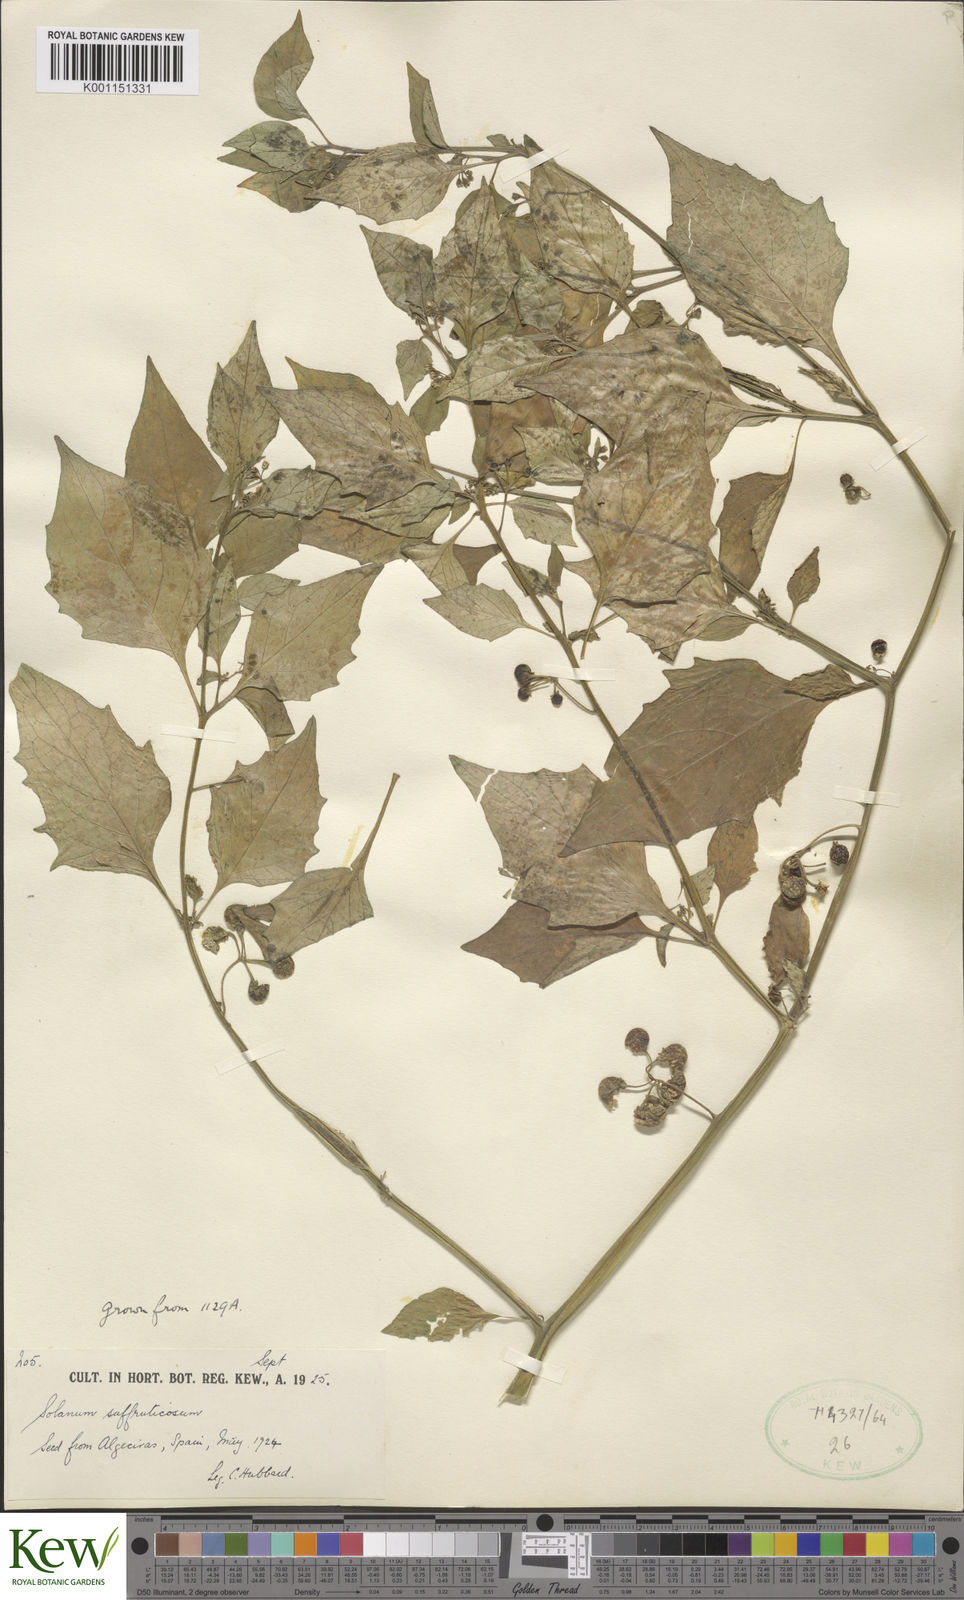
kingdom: Plantae
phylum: Tracheophyta
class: Magnoliopsida
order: Solanales
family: Solanaceae
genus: Solanum
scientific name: Solanum nigrum
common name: Black nightshade
